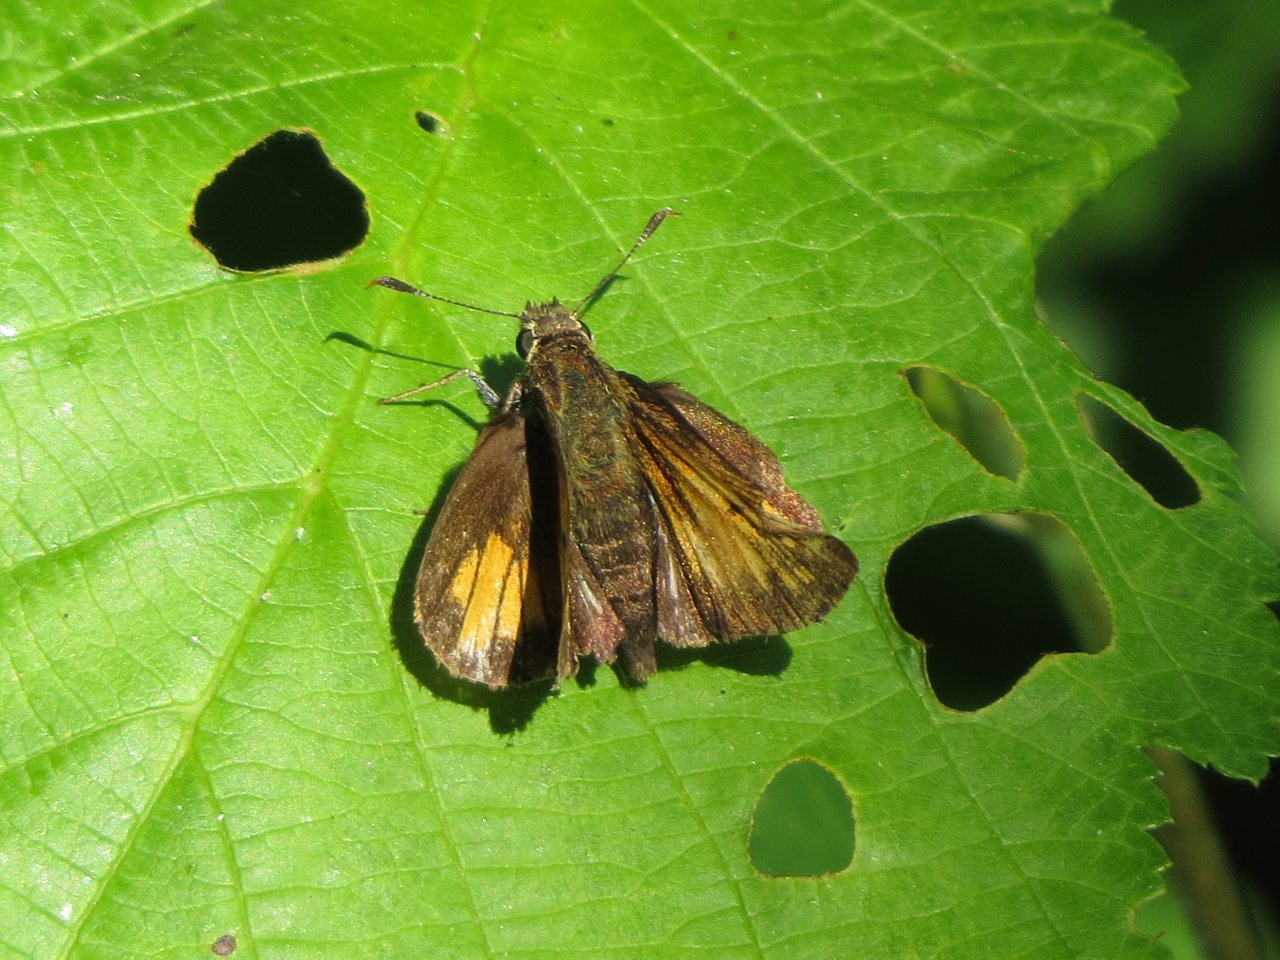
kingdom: Animalia
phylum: Arthropoda
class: Insecta
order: Lepidoptera
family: Hesperiidae
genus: Polites
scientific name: Polites coras
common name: Peck's Skipper
